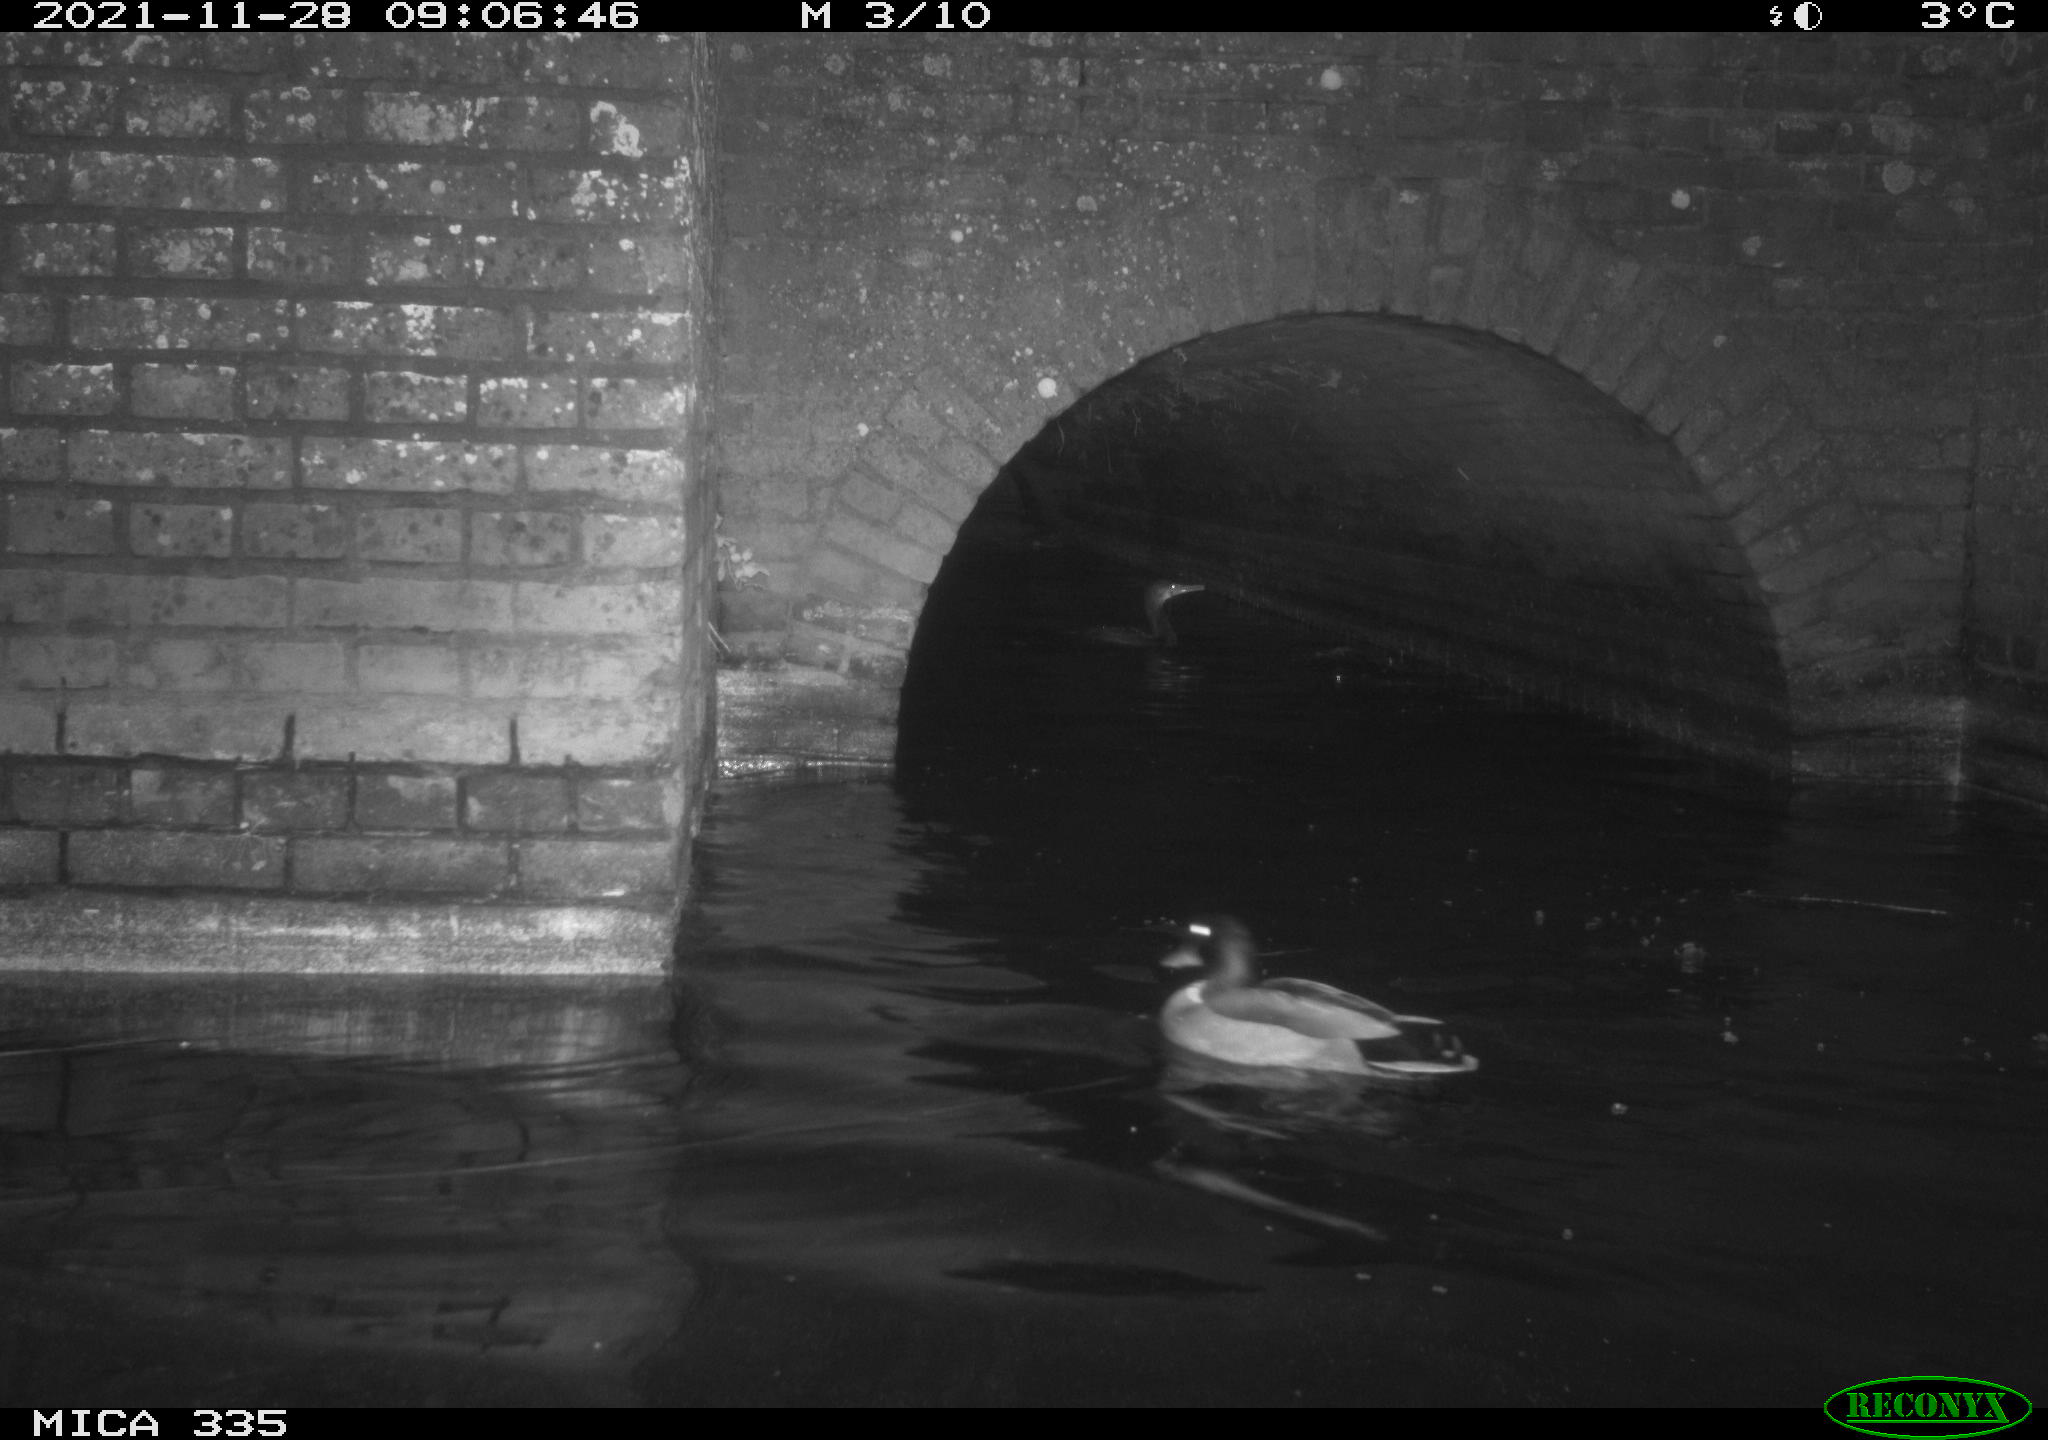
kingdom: Animalia
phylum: Chordata
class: Aves
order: Suliformes
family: Phalacrocoracidae
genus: Phalacrocorax
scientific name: Phalacrocorax carbo
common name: Great cormorant
